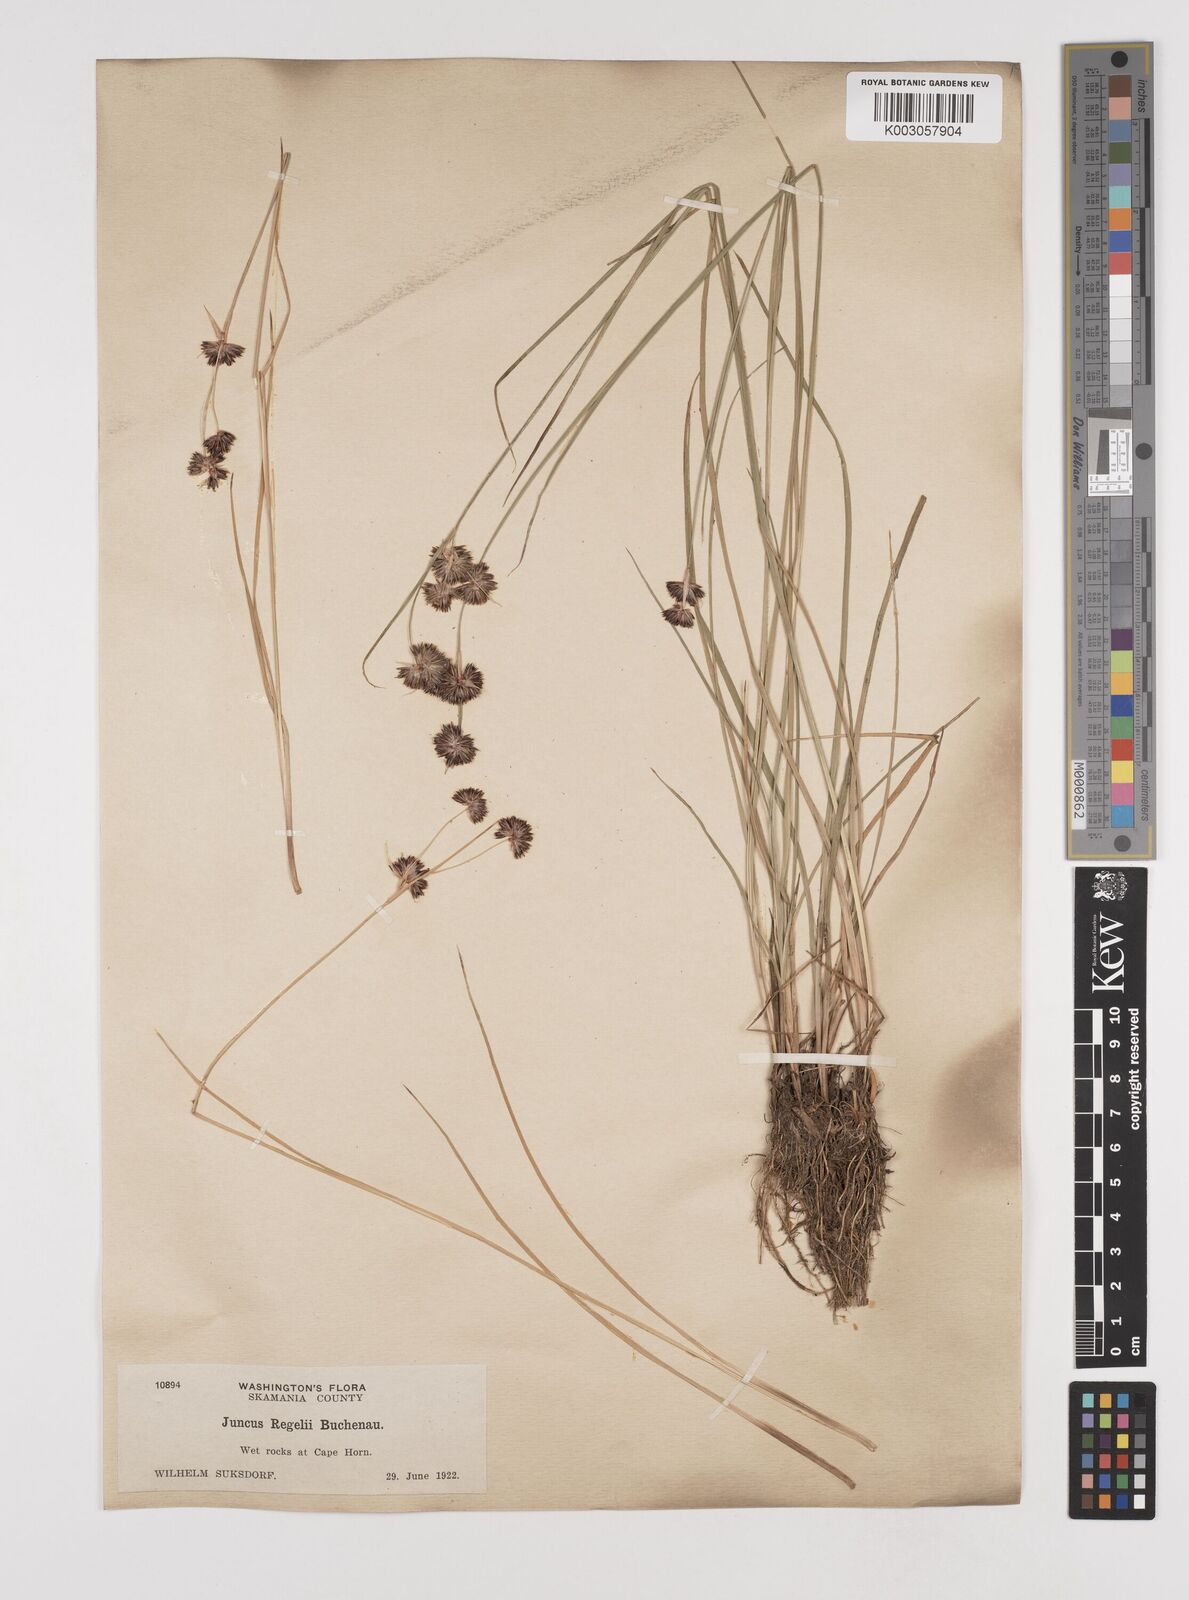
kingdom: Plantae
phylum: Tracheophyta
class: Liliopsida
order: Poales
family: Juncaceae
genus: Juncus
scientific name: Juncus regelii
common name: Regel's rush
